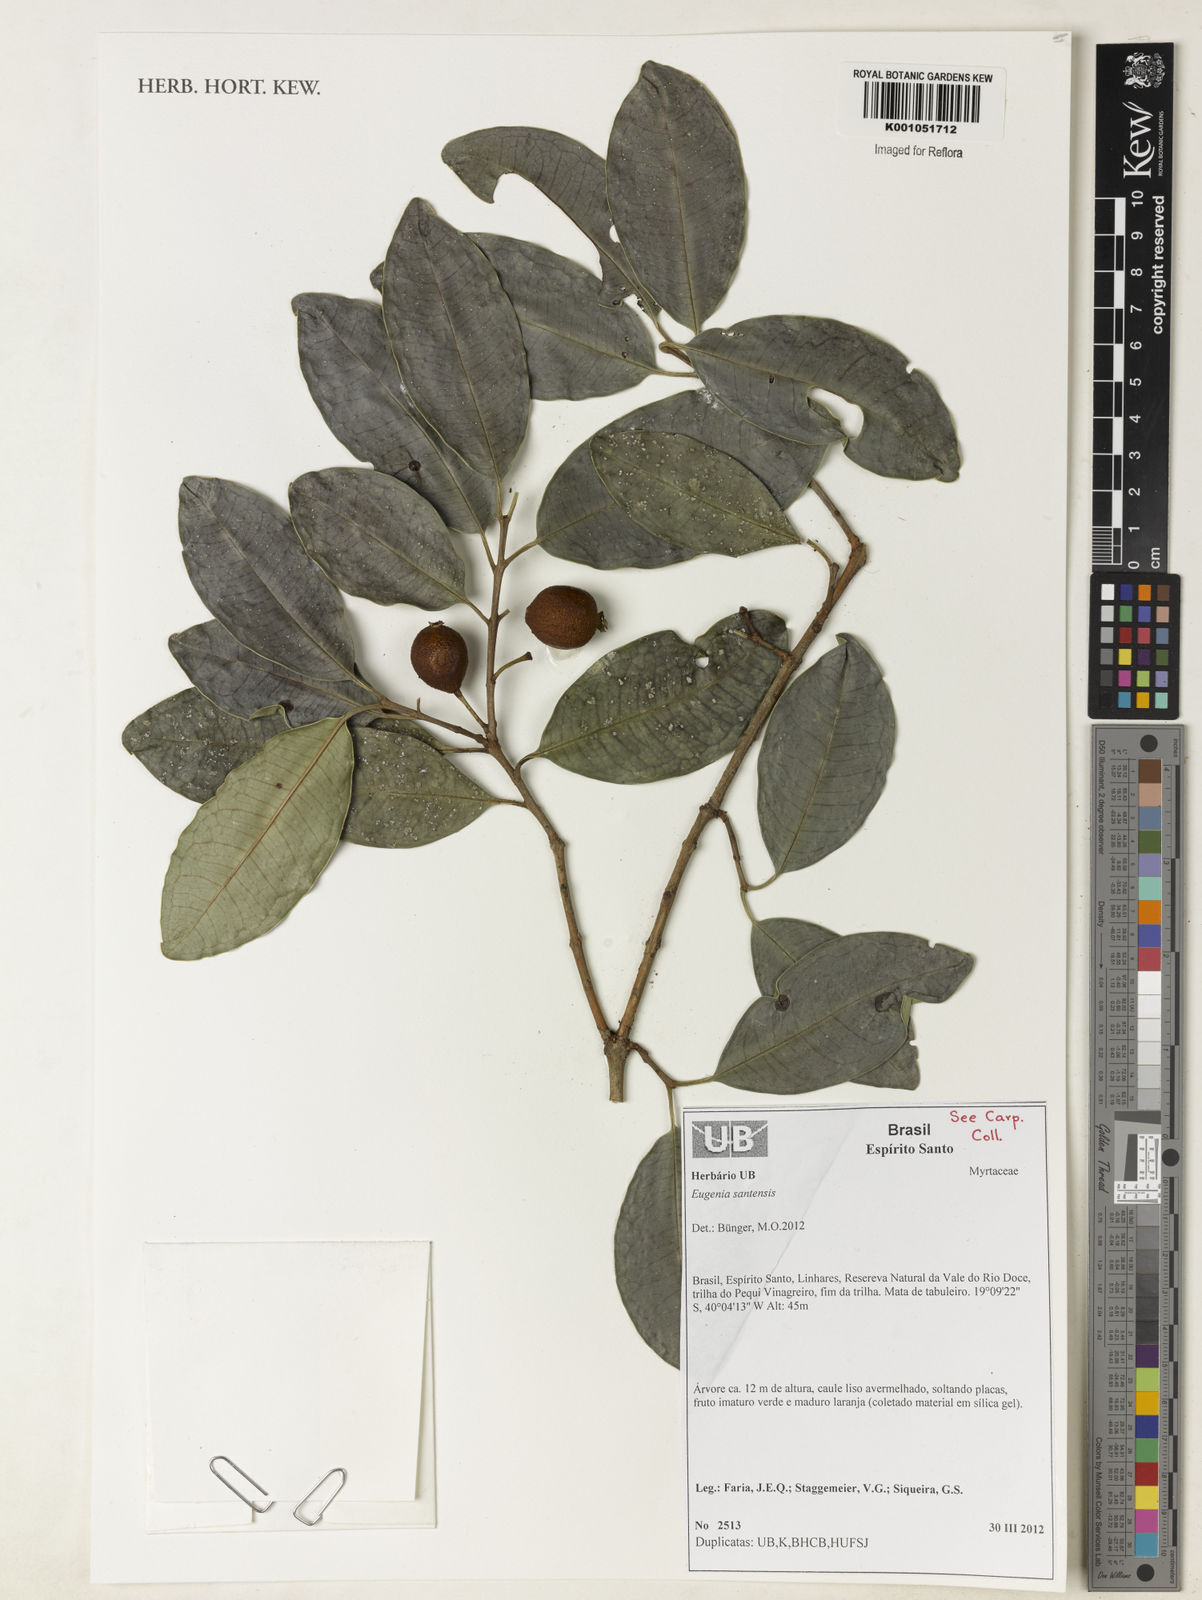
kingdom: Plantae
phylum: Tracheophyta
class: Magnoliopsida
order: Myrtales
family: Myrtaceae
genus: Eugenia
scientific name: Eugenia bunchosiifolia
